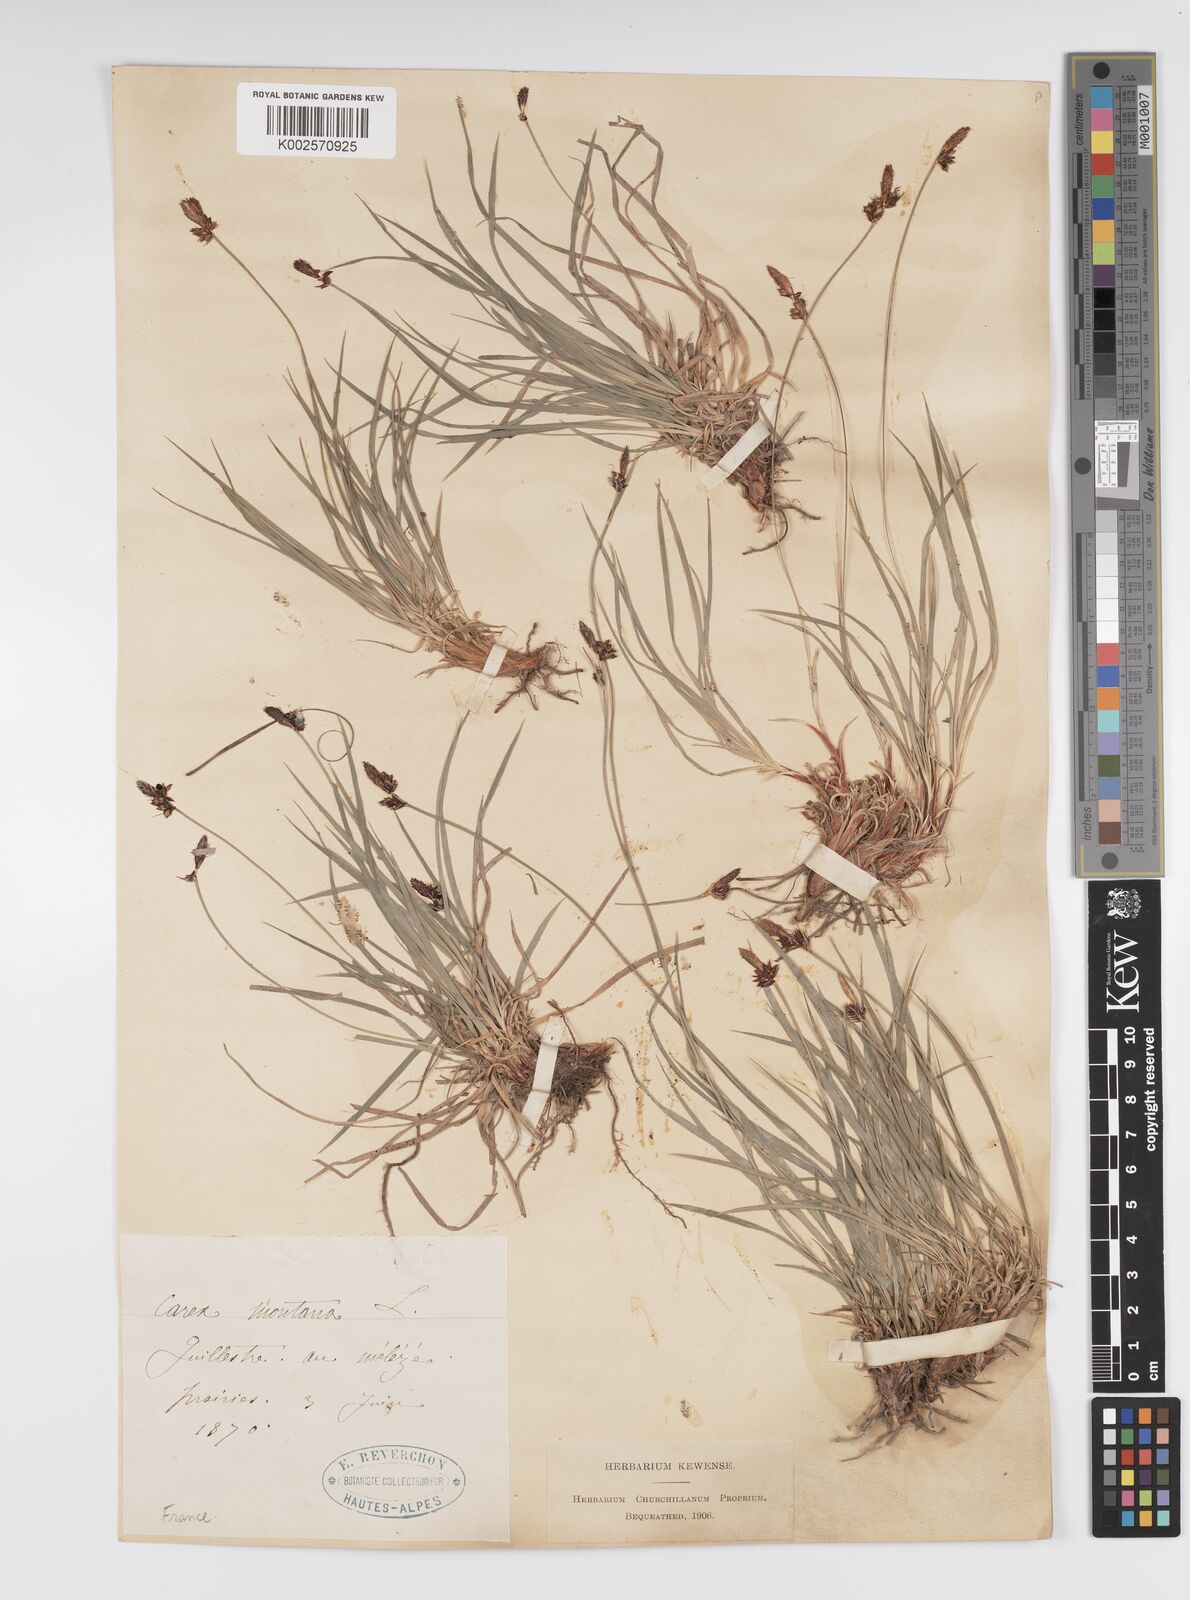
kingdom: Plantae
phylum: Tracheophyta
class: Liliopsida
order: Poales
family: Cyperaceae
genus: Carex
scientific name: Carex montana
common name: Soft-leaved sedge
